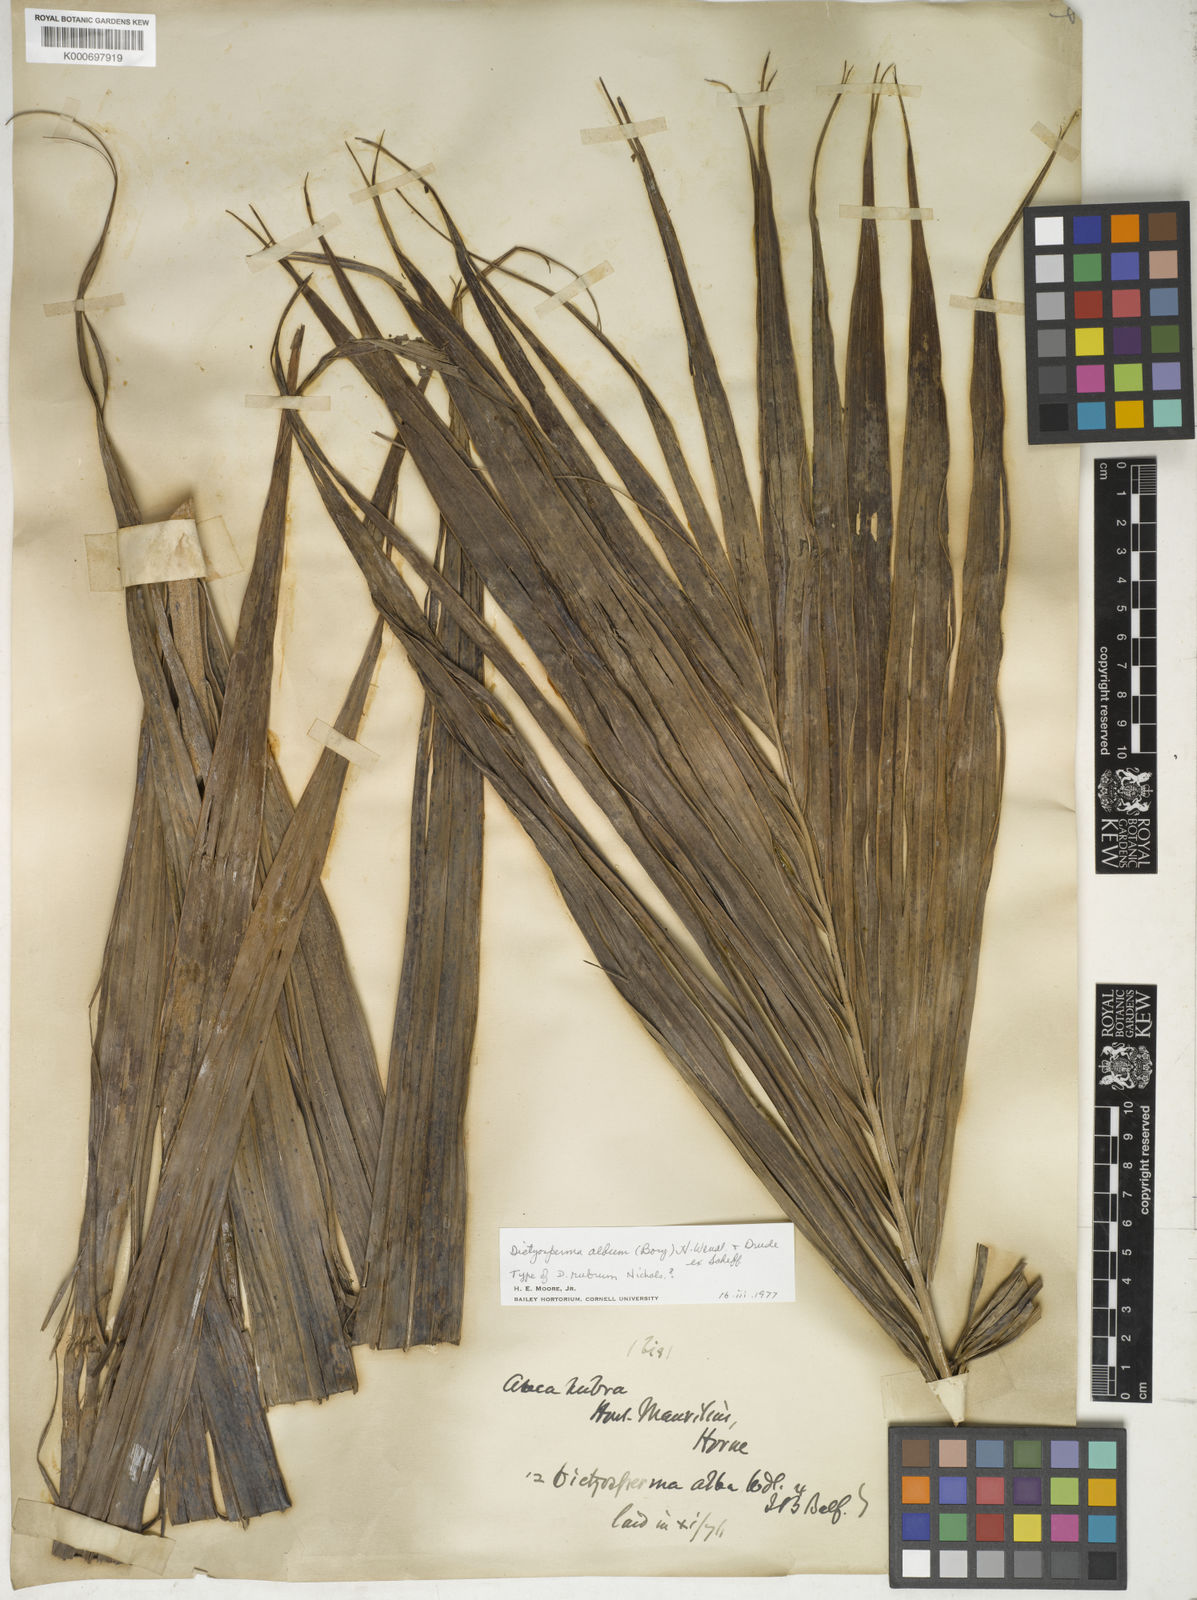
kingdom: Plantae
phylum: Tracheophyta
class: Liliopsida
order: Arecales
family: Arecaceae
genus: Dictyosperma
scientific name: Dictyosperma album
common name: Common princess palm
